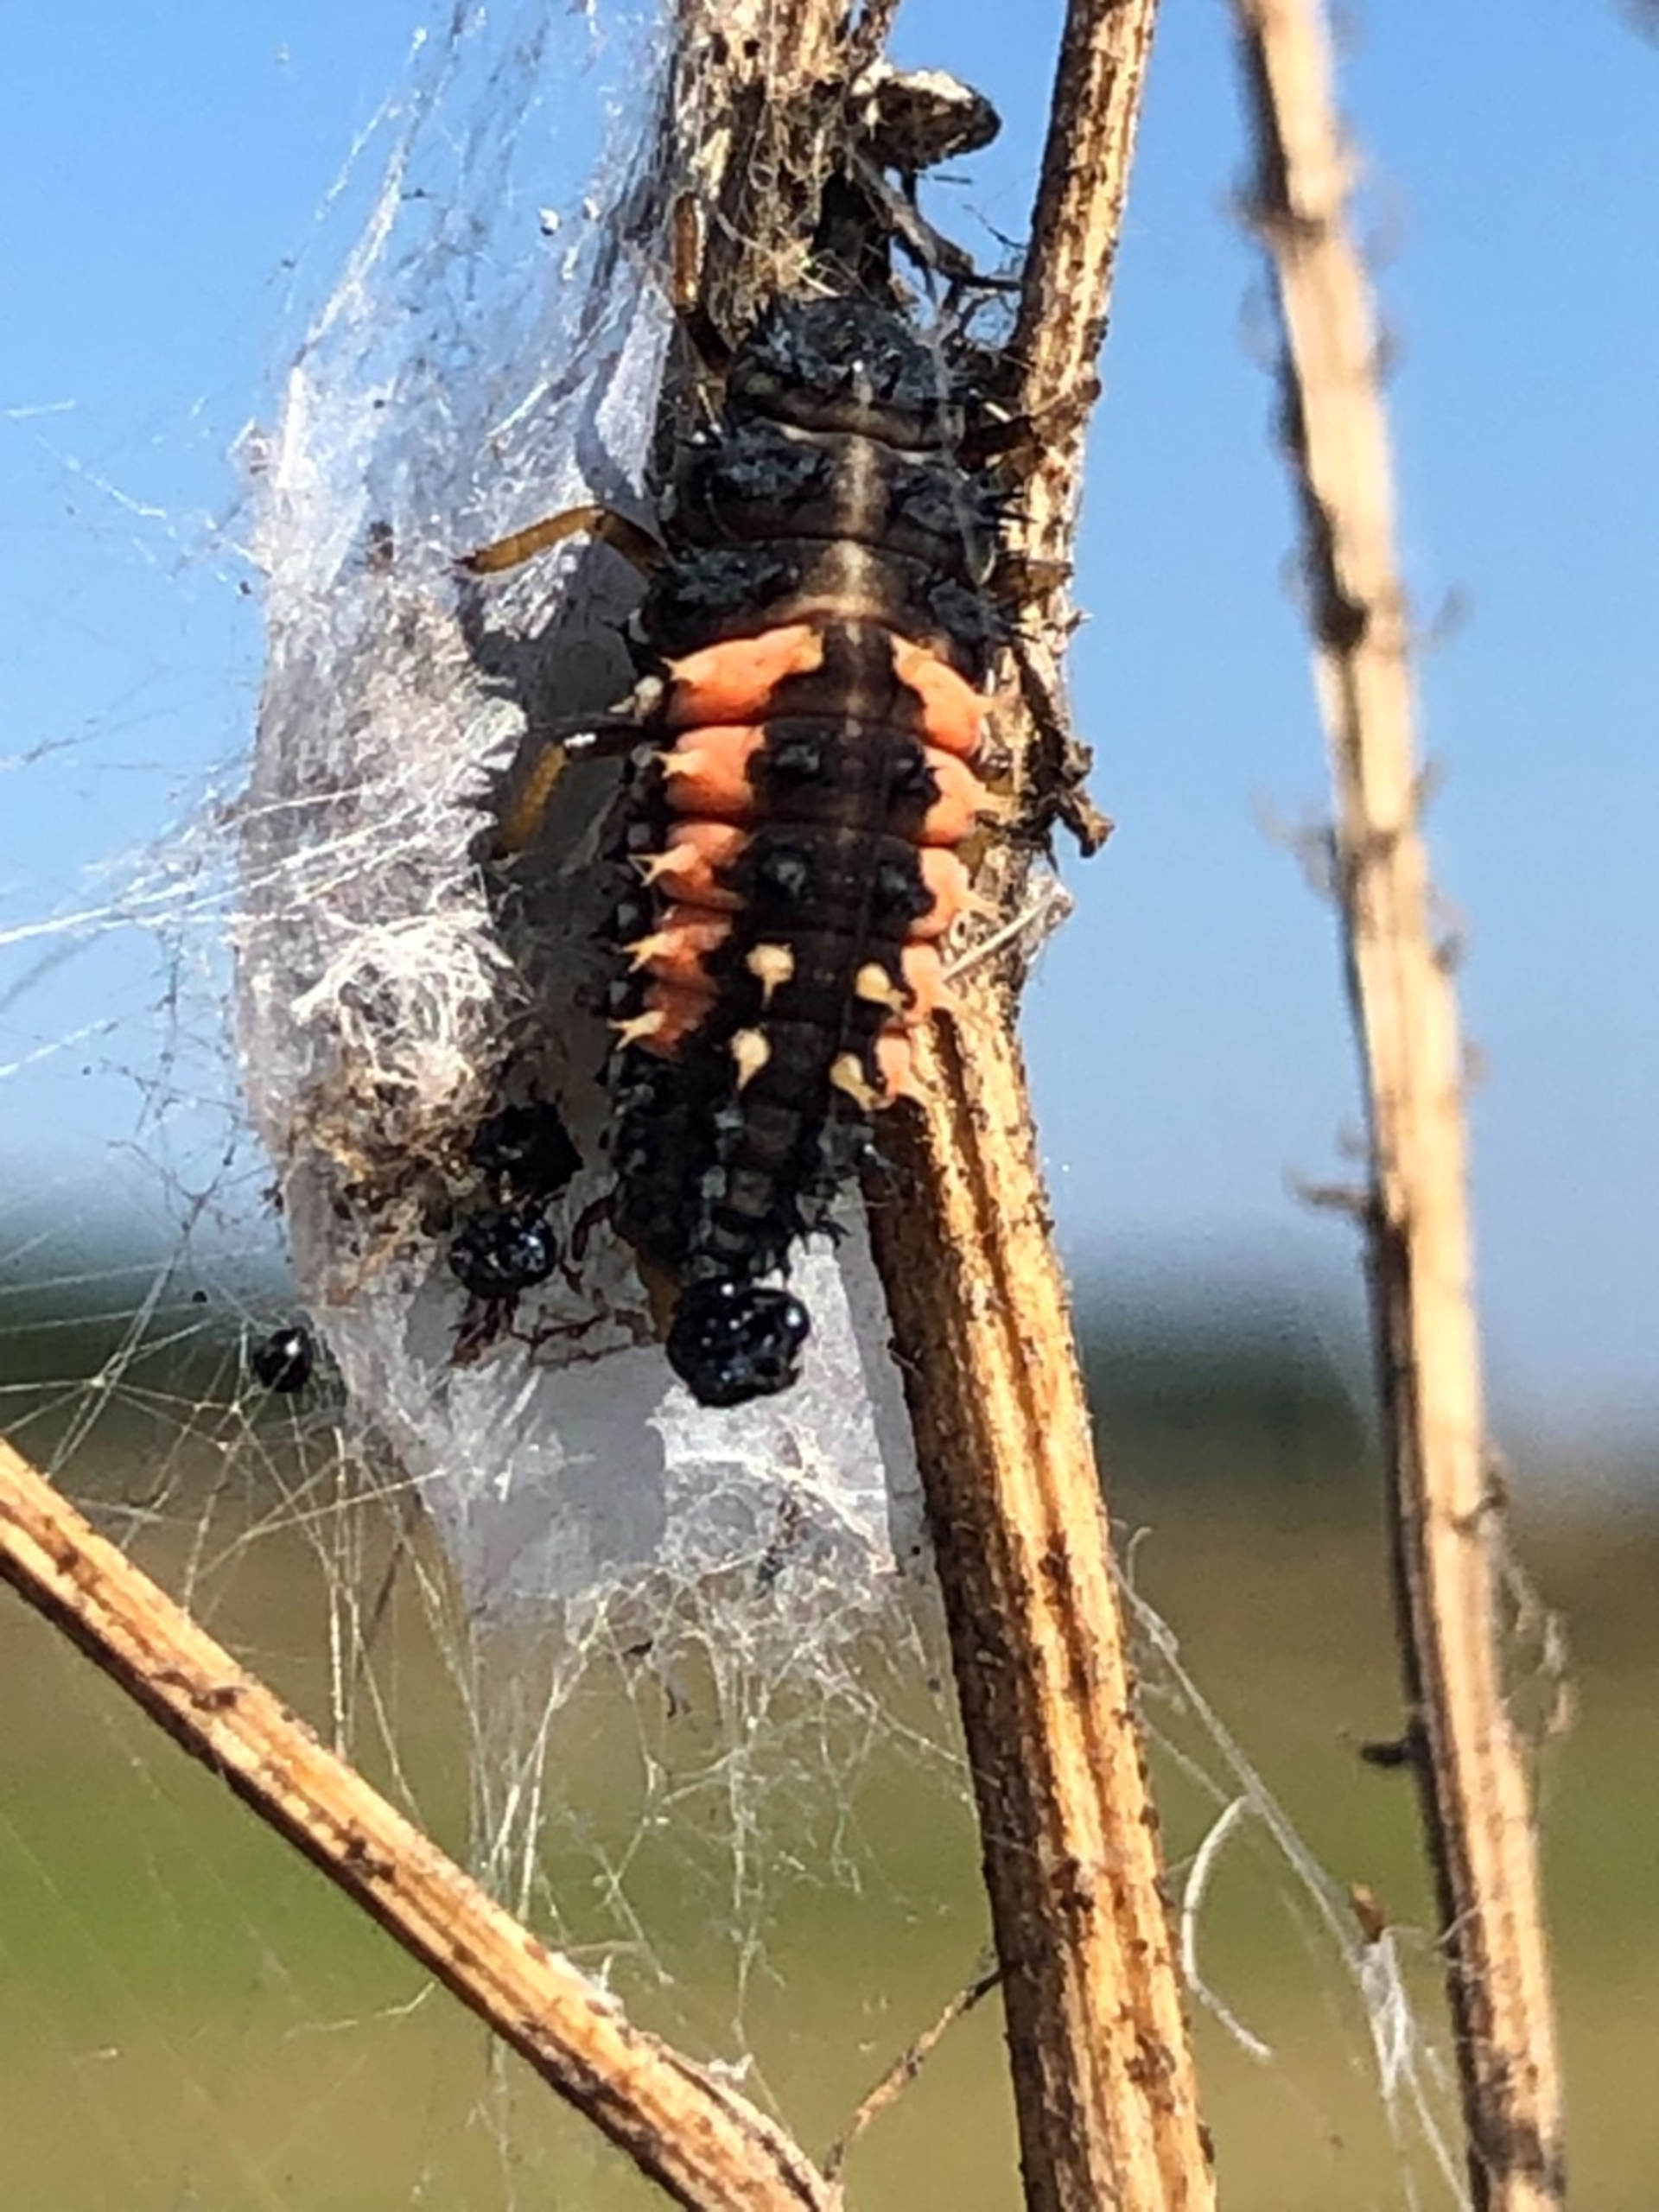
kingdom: Animalia
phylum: Arthropoda
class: Insecta
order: Coleoptera
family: Coccinellidae
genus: Harmonia
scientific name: Harmonia axyridis
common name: Harlekinmariehøne
